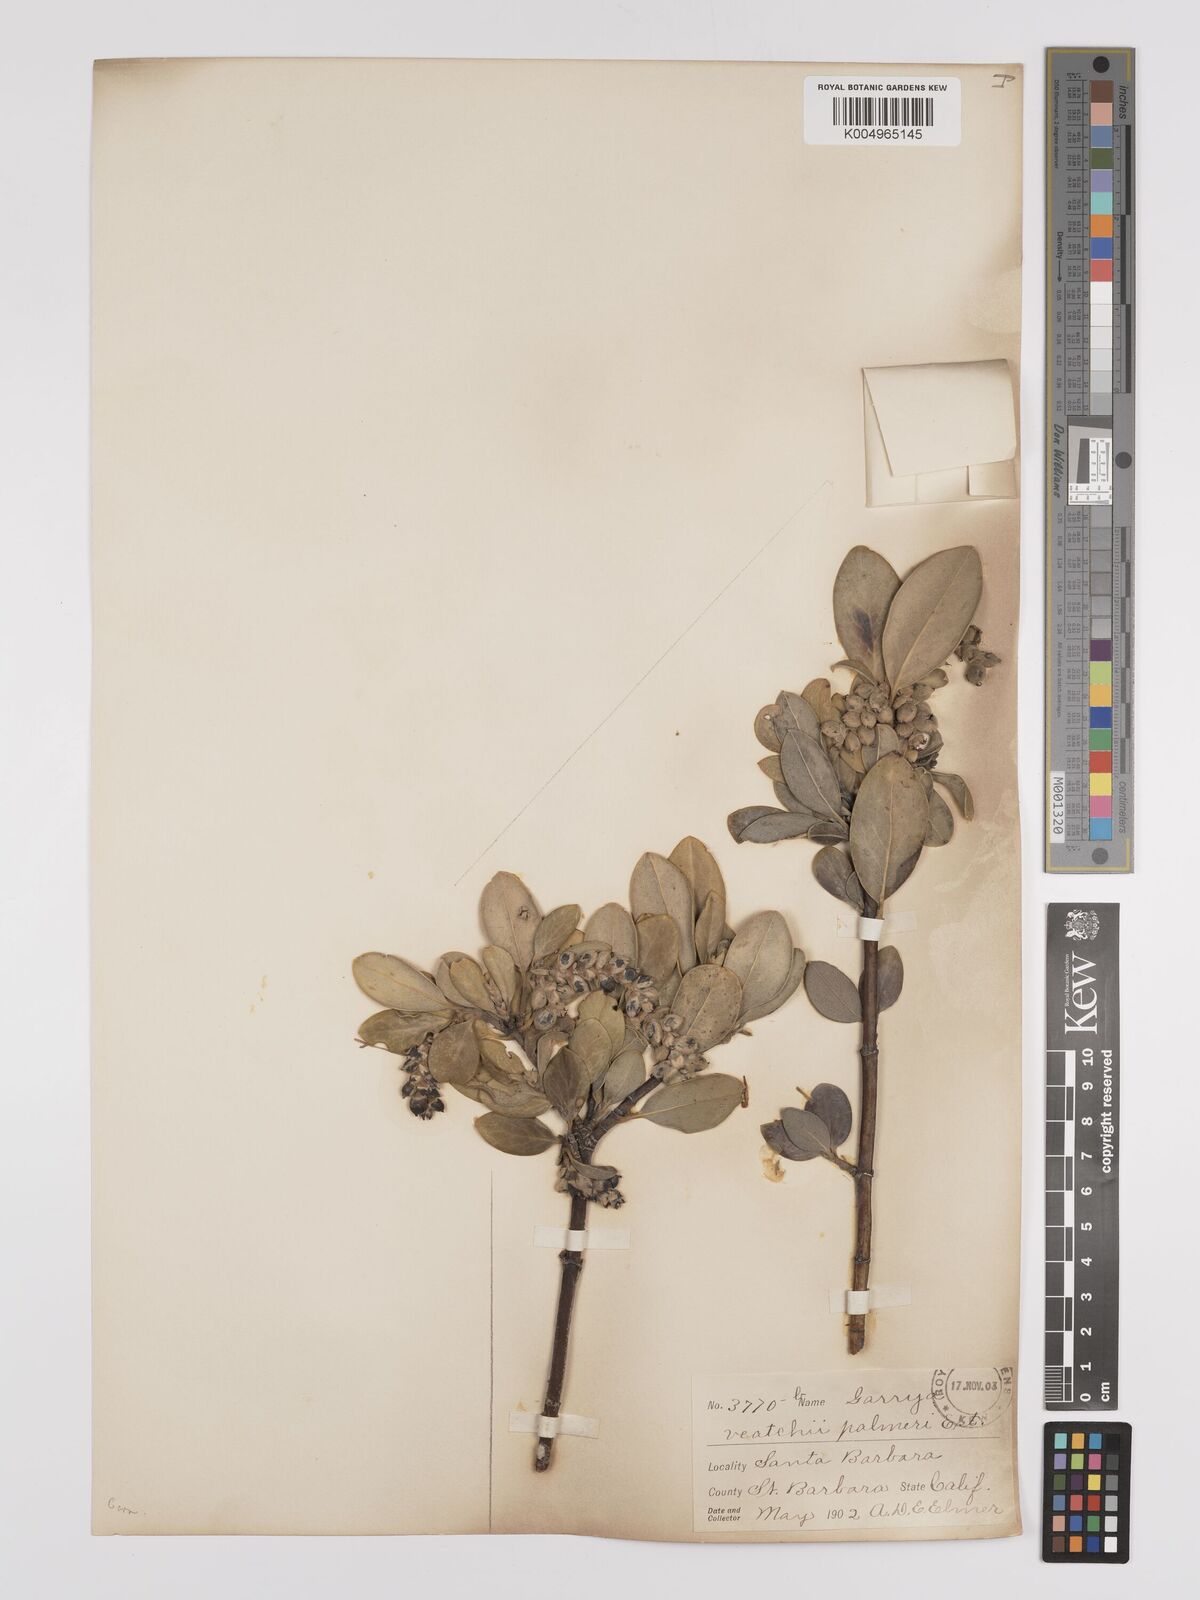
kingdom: Plantae
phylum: Tracheophyta
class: Magnoliopsida
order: Garryales
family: Garryaceae
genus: Garrya
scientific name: Garrya veatchii
